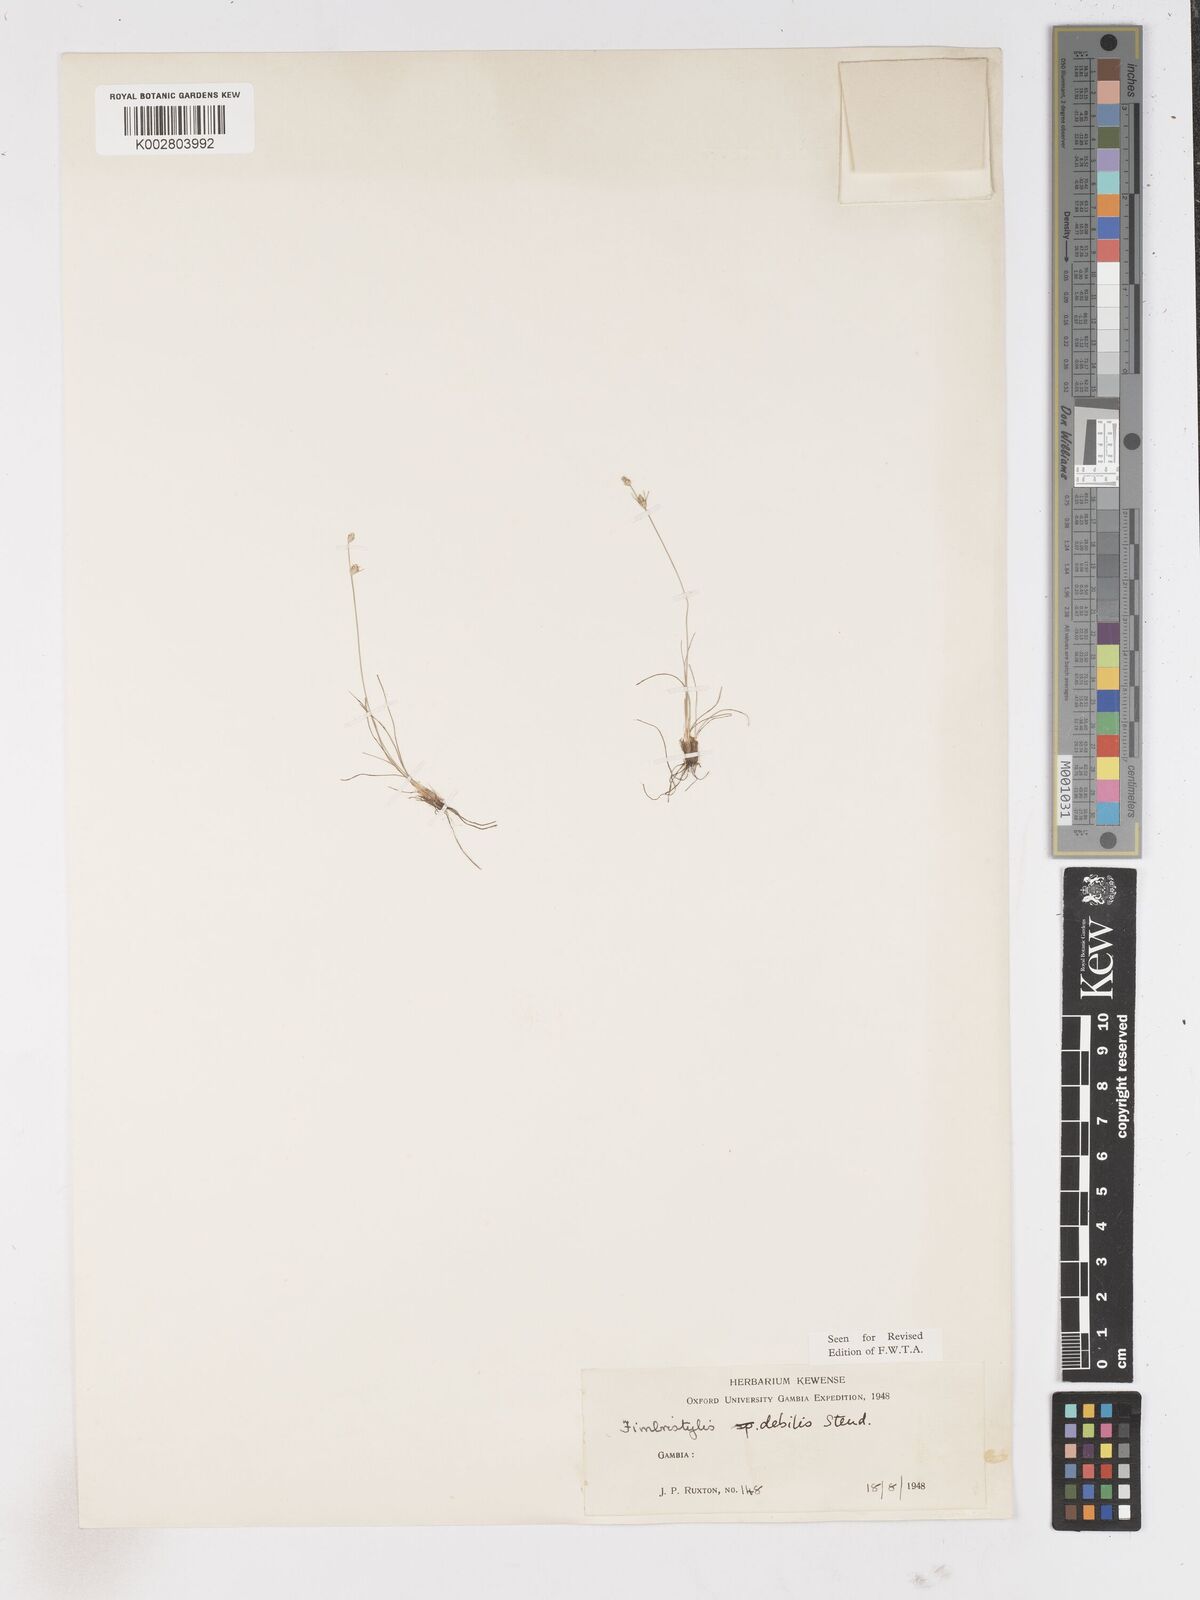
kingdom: Plantae
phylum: Tracheophyta
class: Liliopsida
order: Poales
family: Cyperaceae
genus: Fimbristylis
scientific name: Fimbristylis debilis
